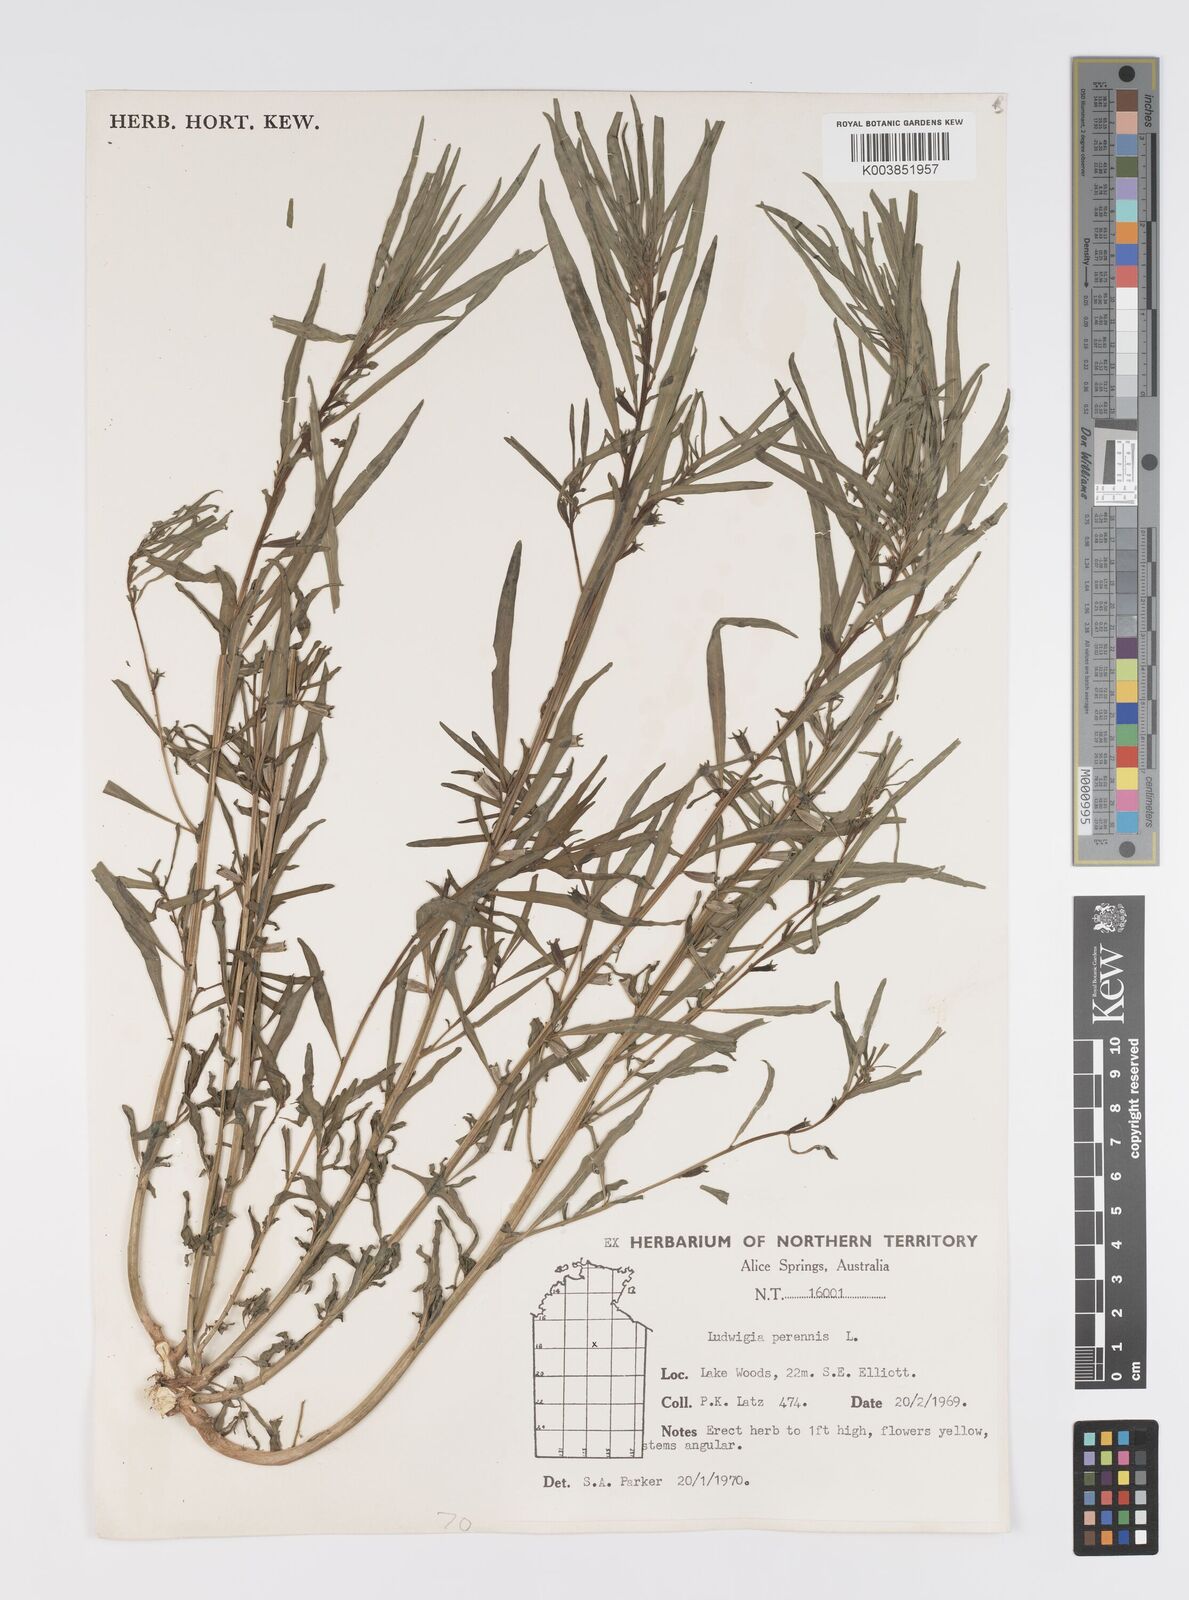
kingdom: Plantae
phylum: Tracheophyta
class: Magnoliopsida
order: Myrtales
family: Onagraceae
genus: Ludwigia
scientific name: Ludwigia perennis
